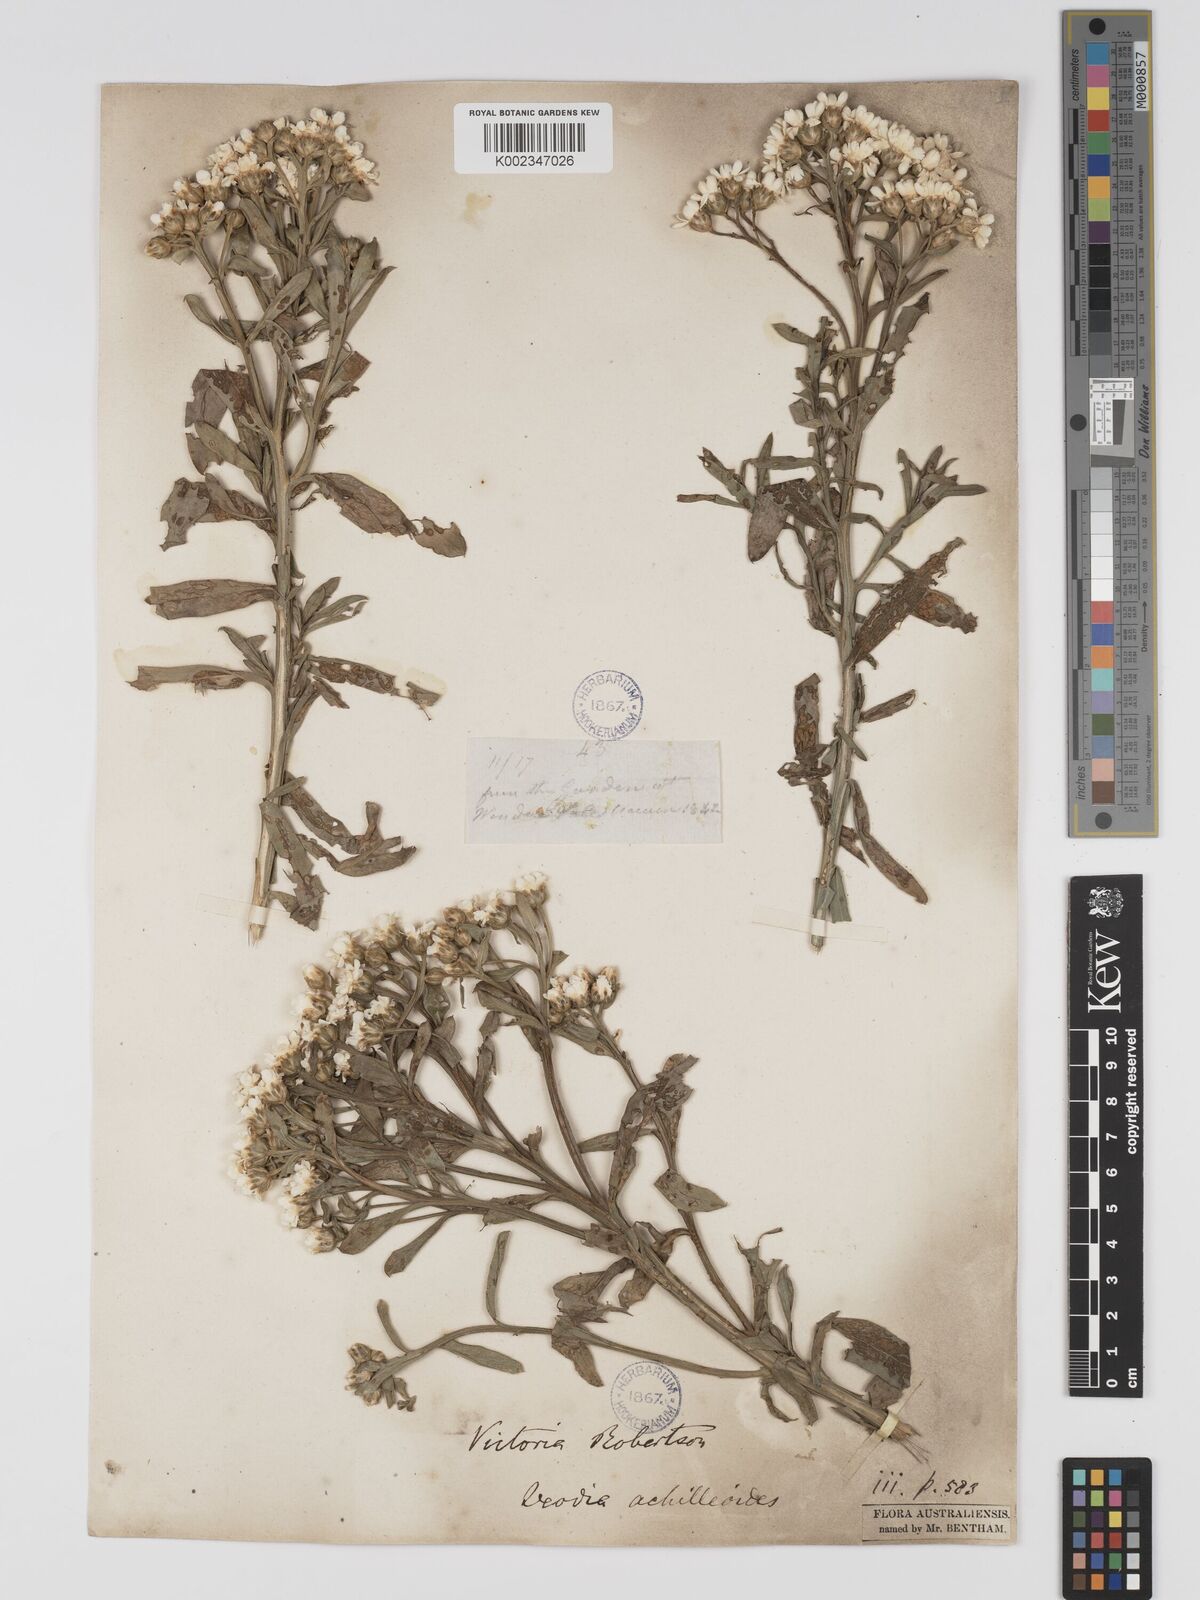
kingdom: Plantae
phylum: Tracheophyta
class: Magnoliopsida
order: Asterales
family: Asteraceae
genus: Ixodia
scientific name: Ixodia achilleoides
